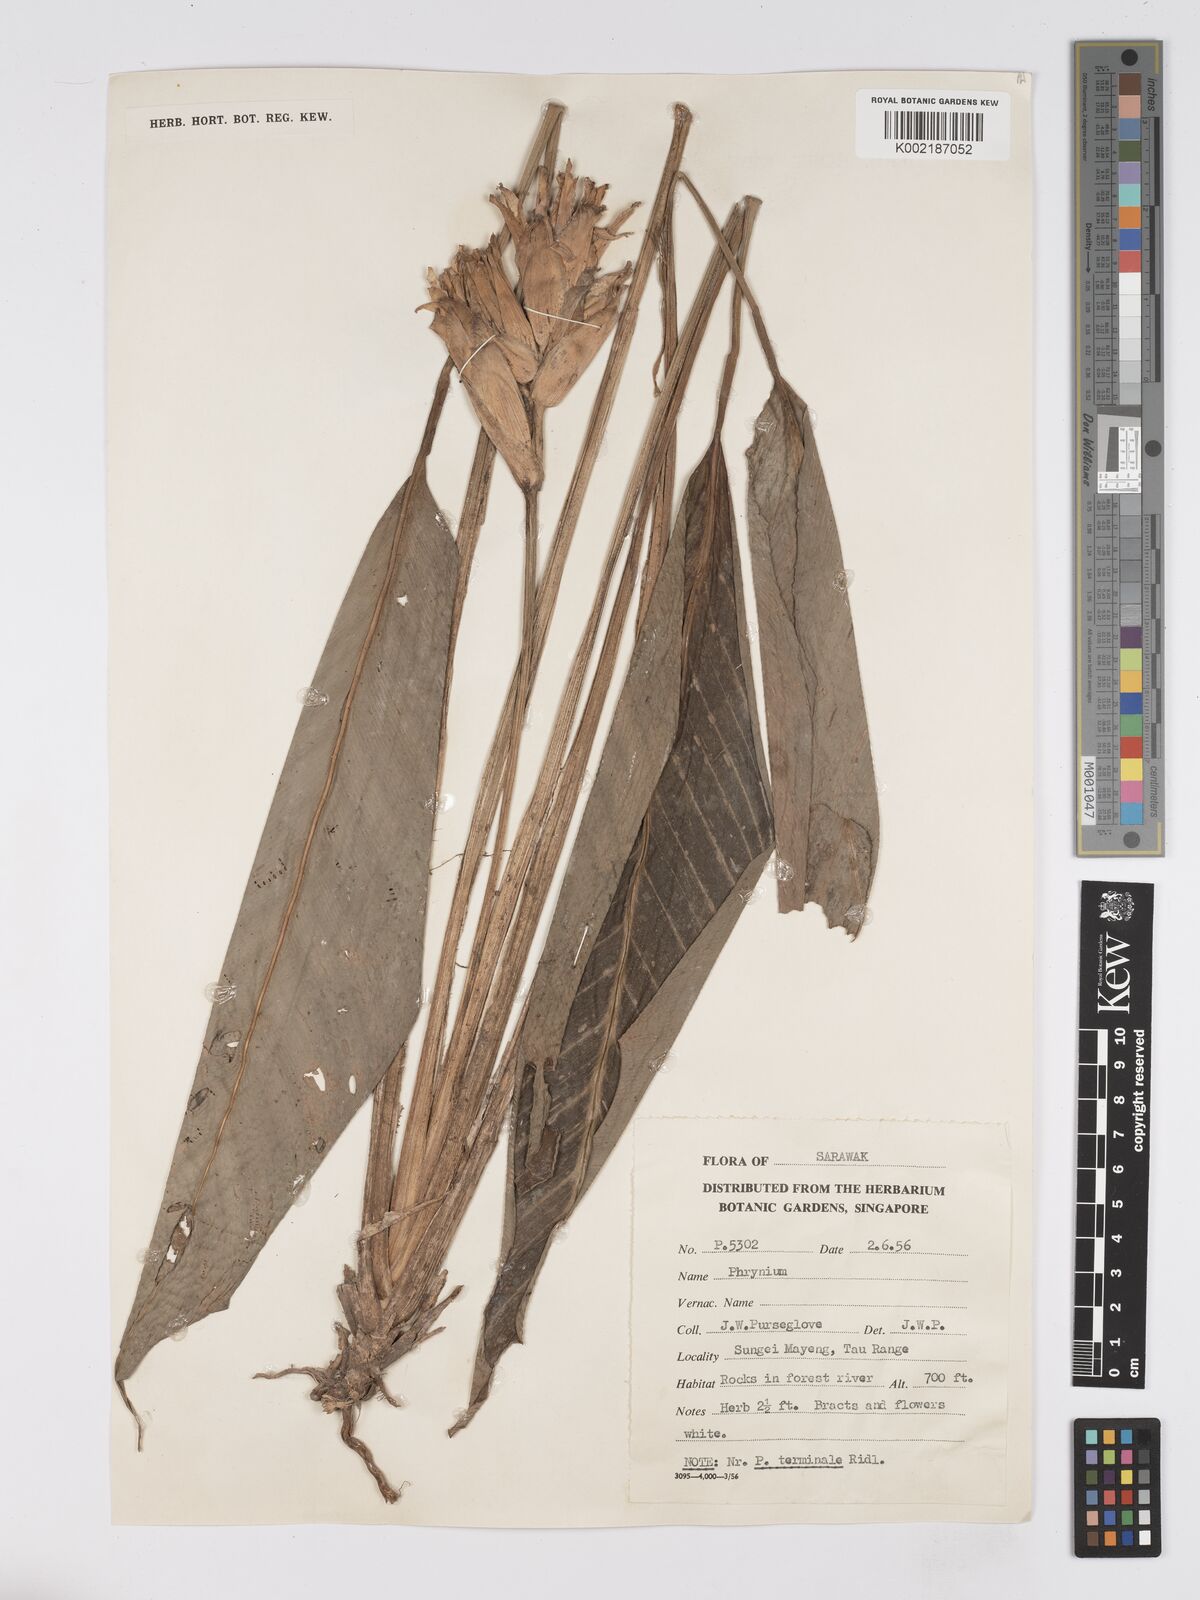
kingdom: Plantae
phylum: Tracheophyta
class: Liliopsida
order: Zingiberales
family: Marantaceae
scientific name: Marantaceae
